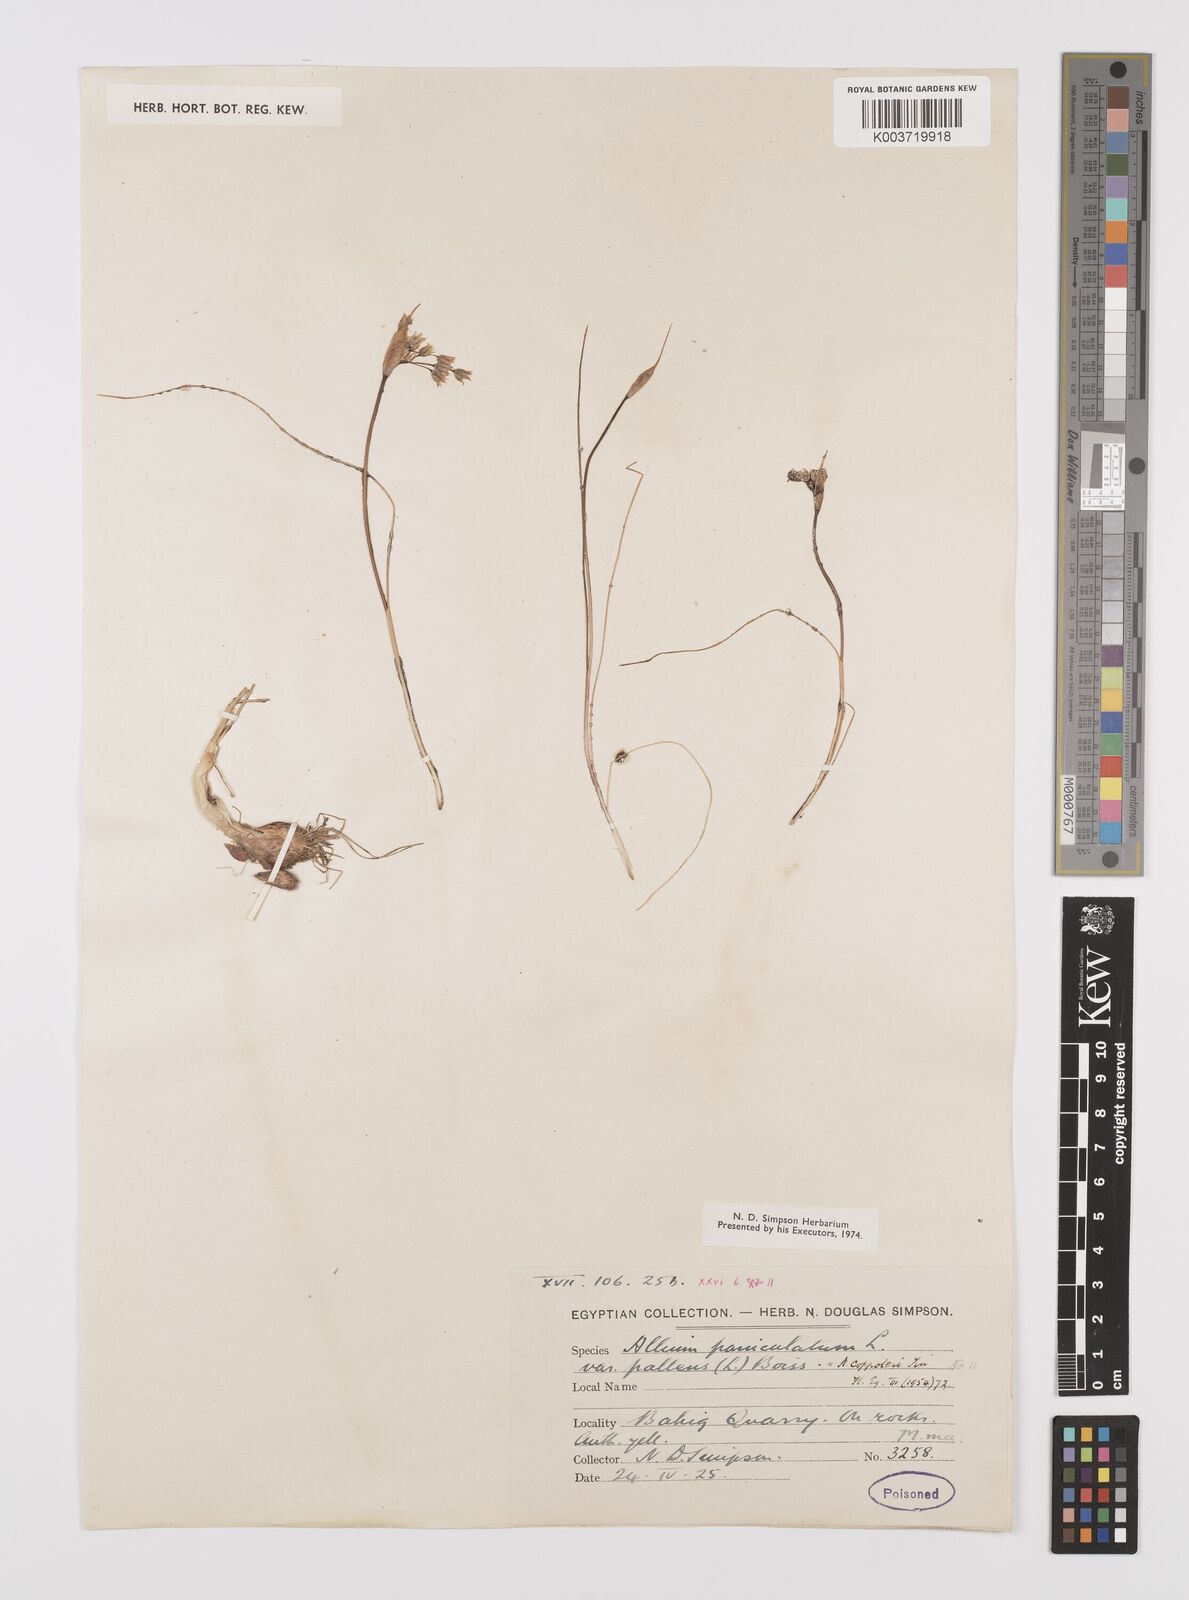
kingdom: Plantae
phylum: Tracheophyta
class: Liliopsida
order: Asparagales
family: Amaryllidaceae
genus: Allium
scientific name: Allium paniculatum
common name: Pale garlic
